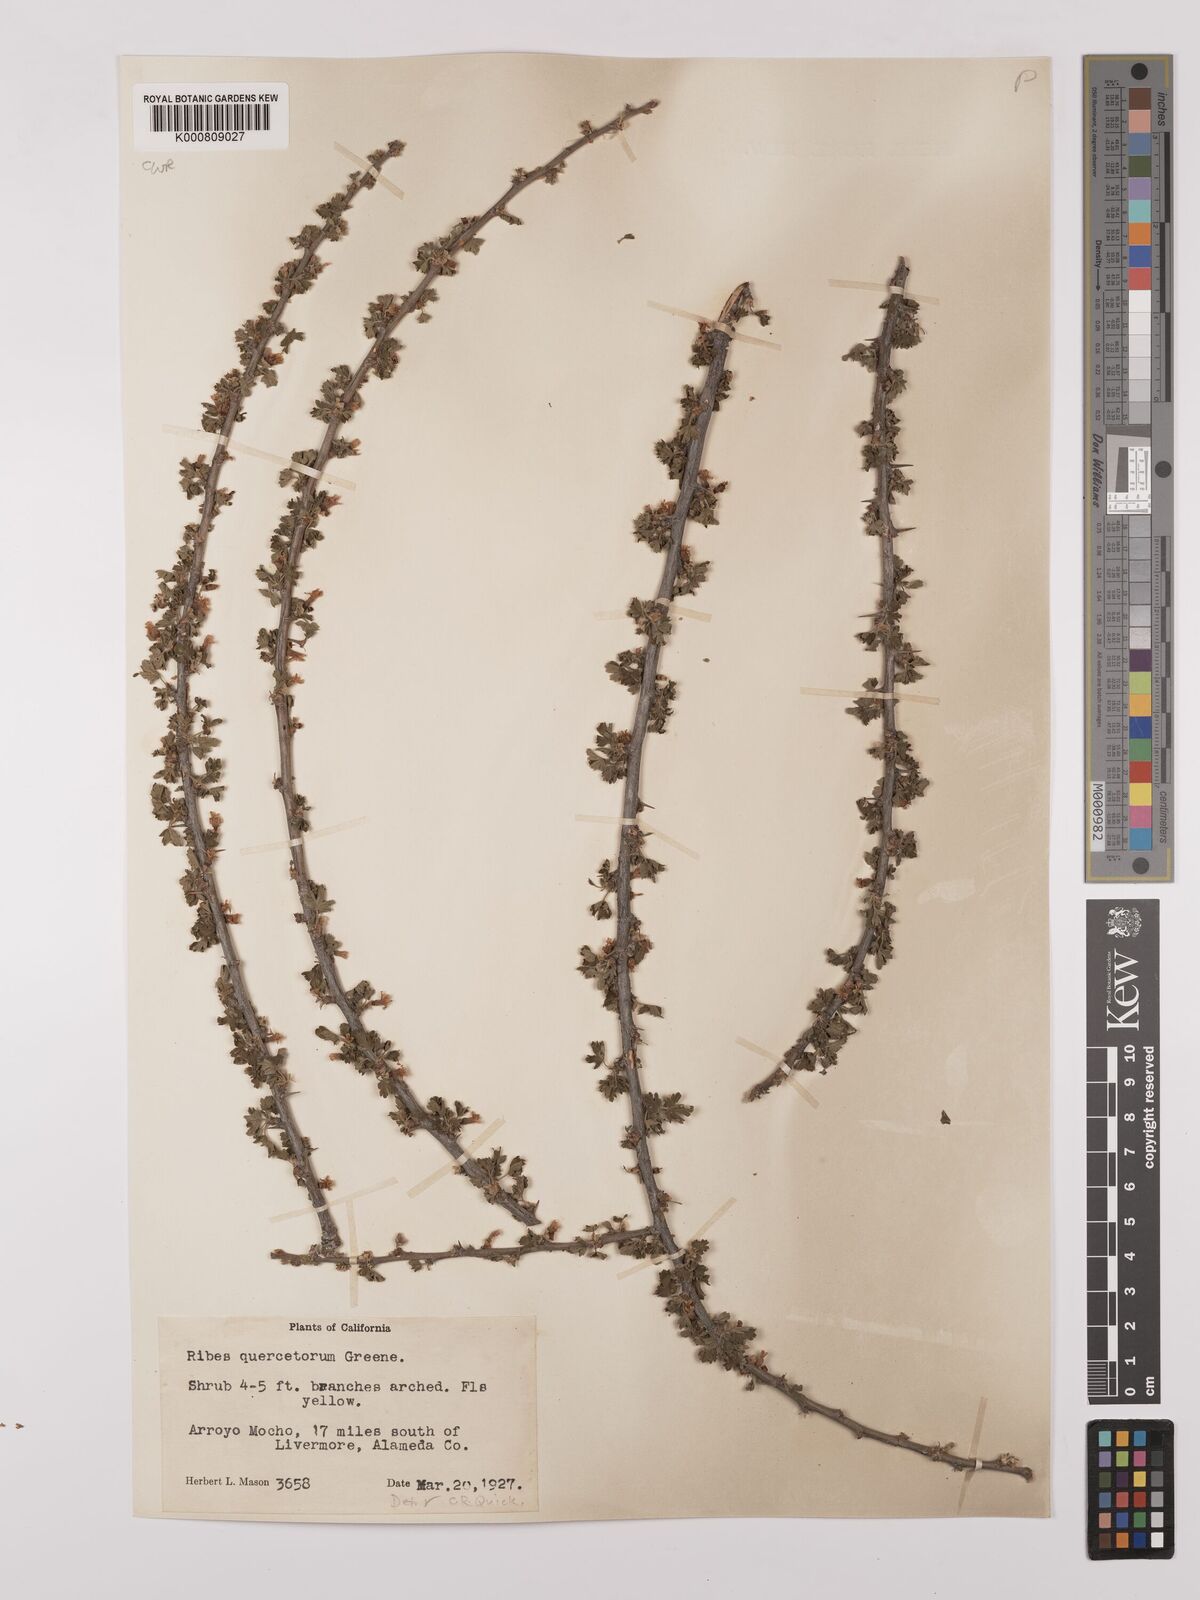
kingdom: Plantae
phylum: Tracheophyta
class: Magnoliopsida
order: Saxifragales
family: Grossulariaceae
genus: Ribes
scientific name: Ribes quercetorum
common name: Oak gooseberry
